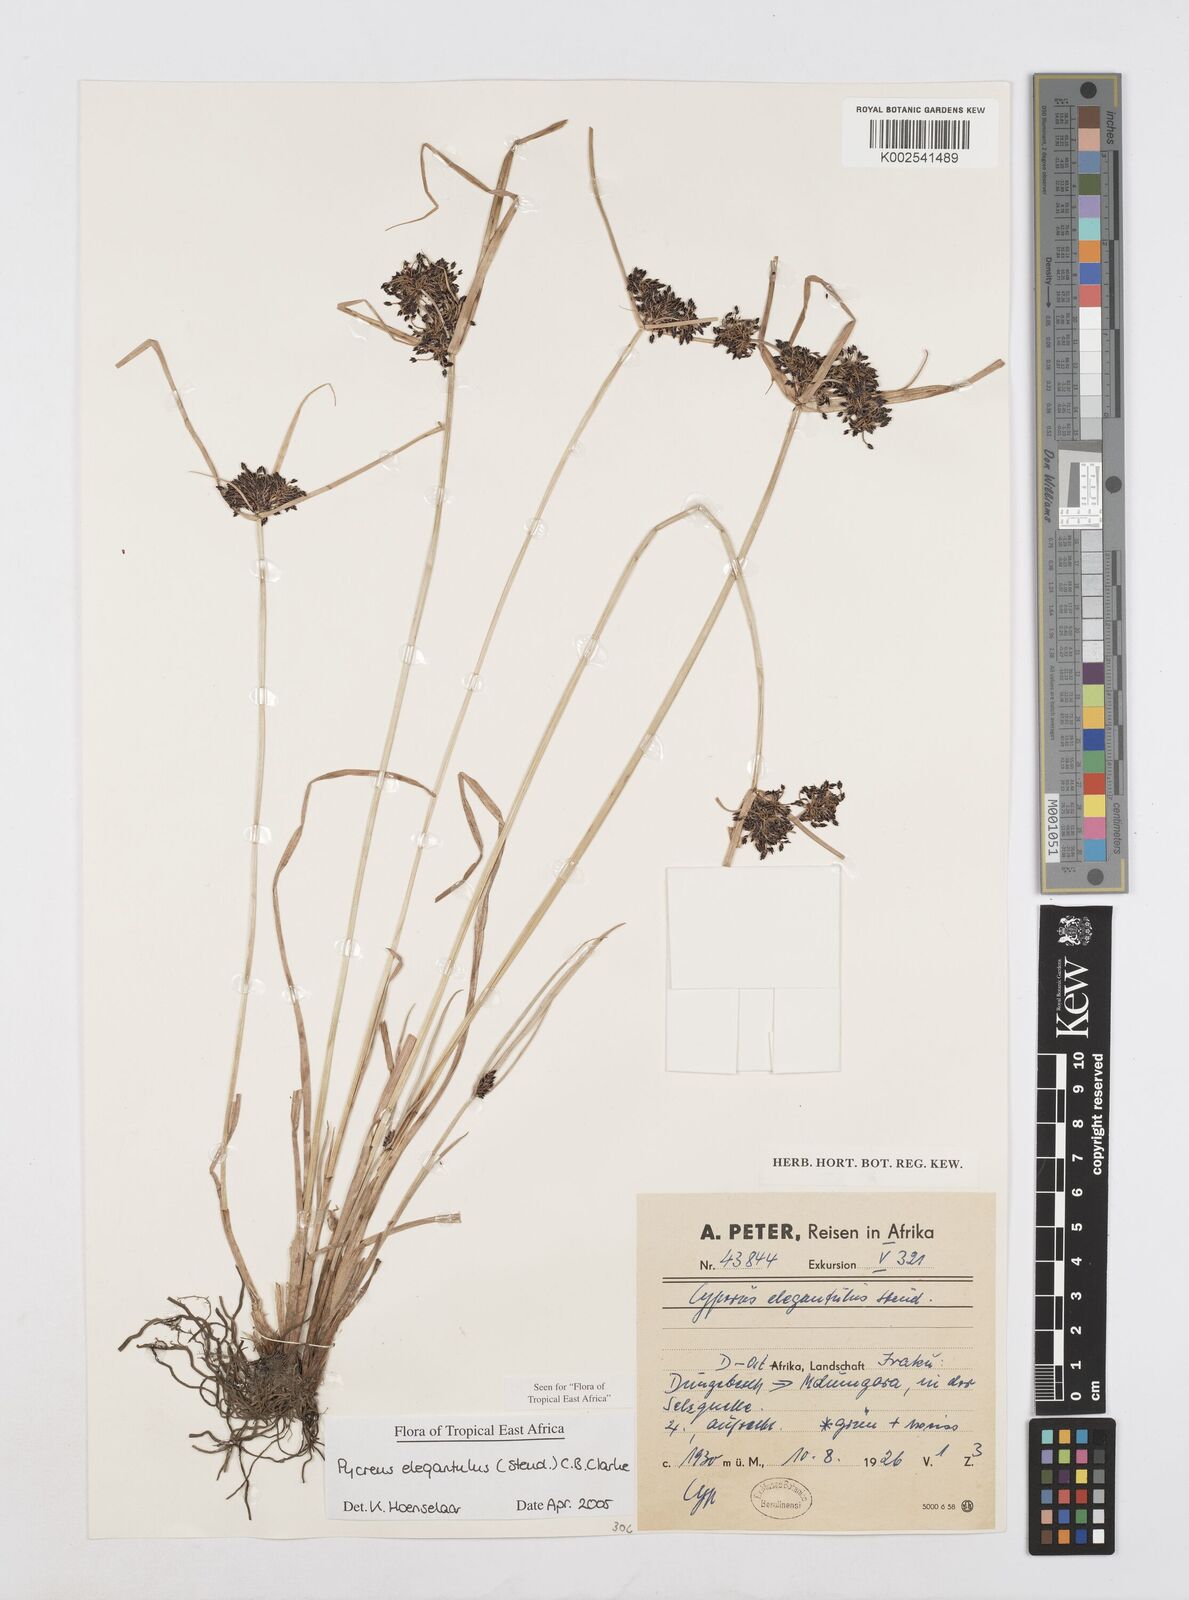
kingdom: Plantae
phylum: Tracheophyta
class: Liliopsida
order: Poales
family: Cyperaceae
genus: Cyperus
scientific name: Cyperus elegantulus
